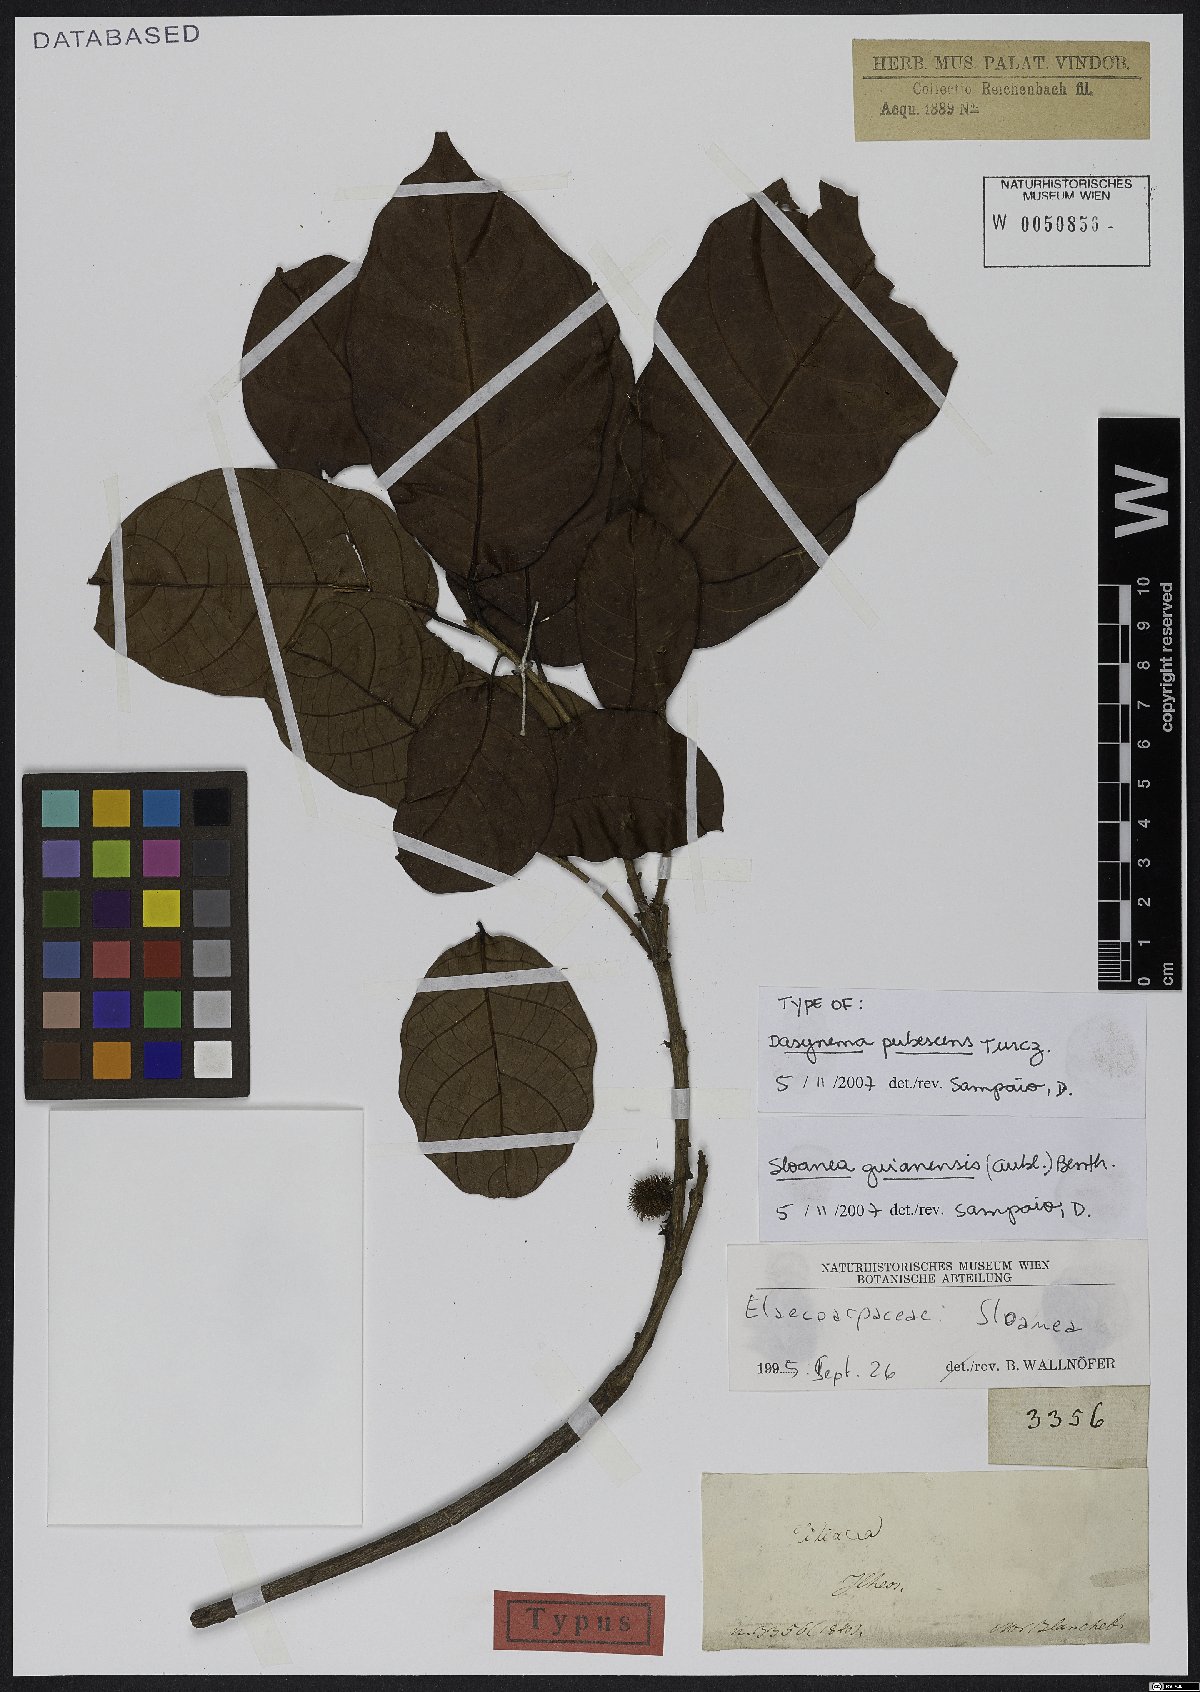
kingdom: Plantae
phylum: Tracheophyta
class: Magnoliopsida
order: Oxalidales
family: Elaeocarpaceae
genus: Sloanea
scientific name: Sloanea guianensis
